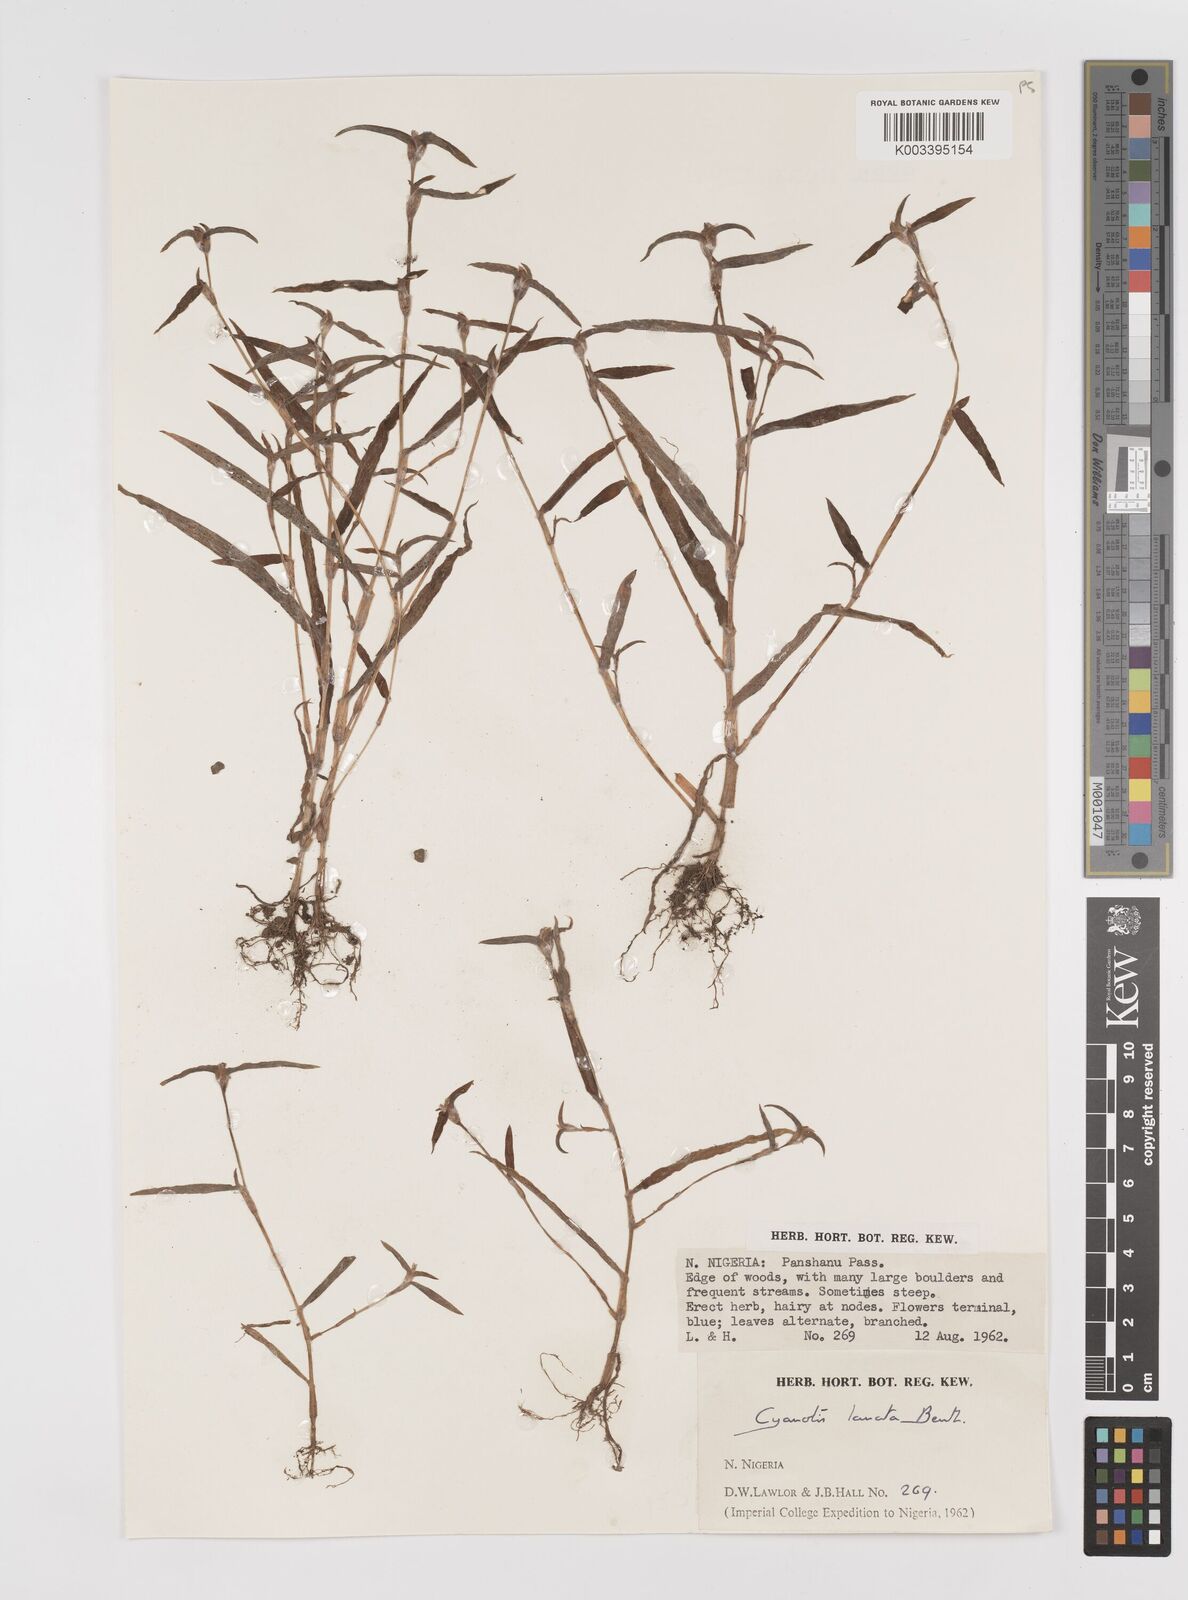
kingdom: Plantae
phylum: Tracheophyta
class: Liliopsida
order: Commelinales
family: Commelinaceae
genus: Cyanotis
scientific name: Cyanotis lanata
